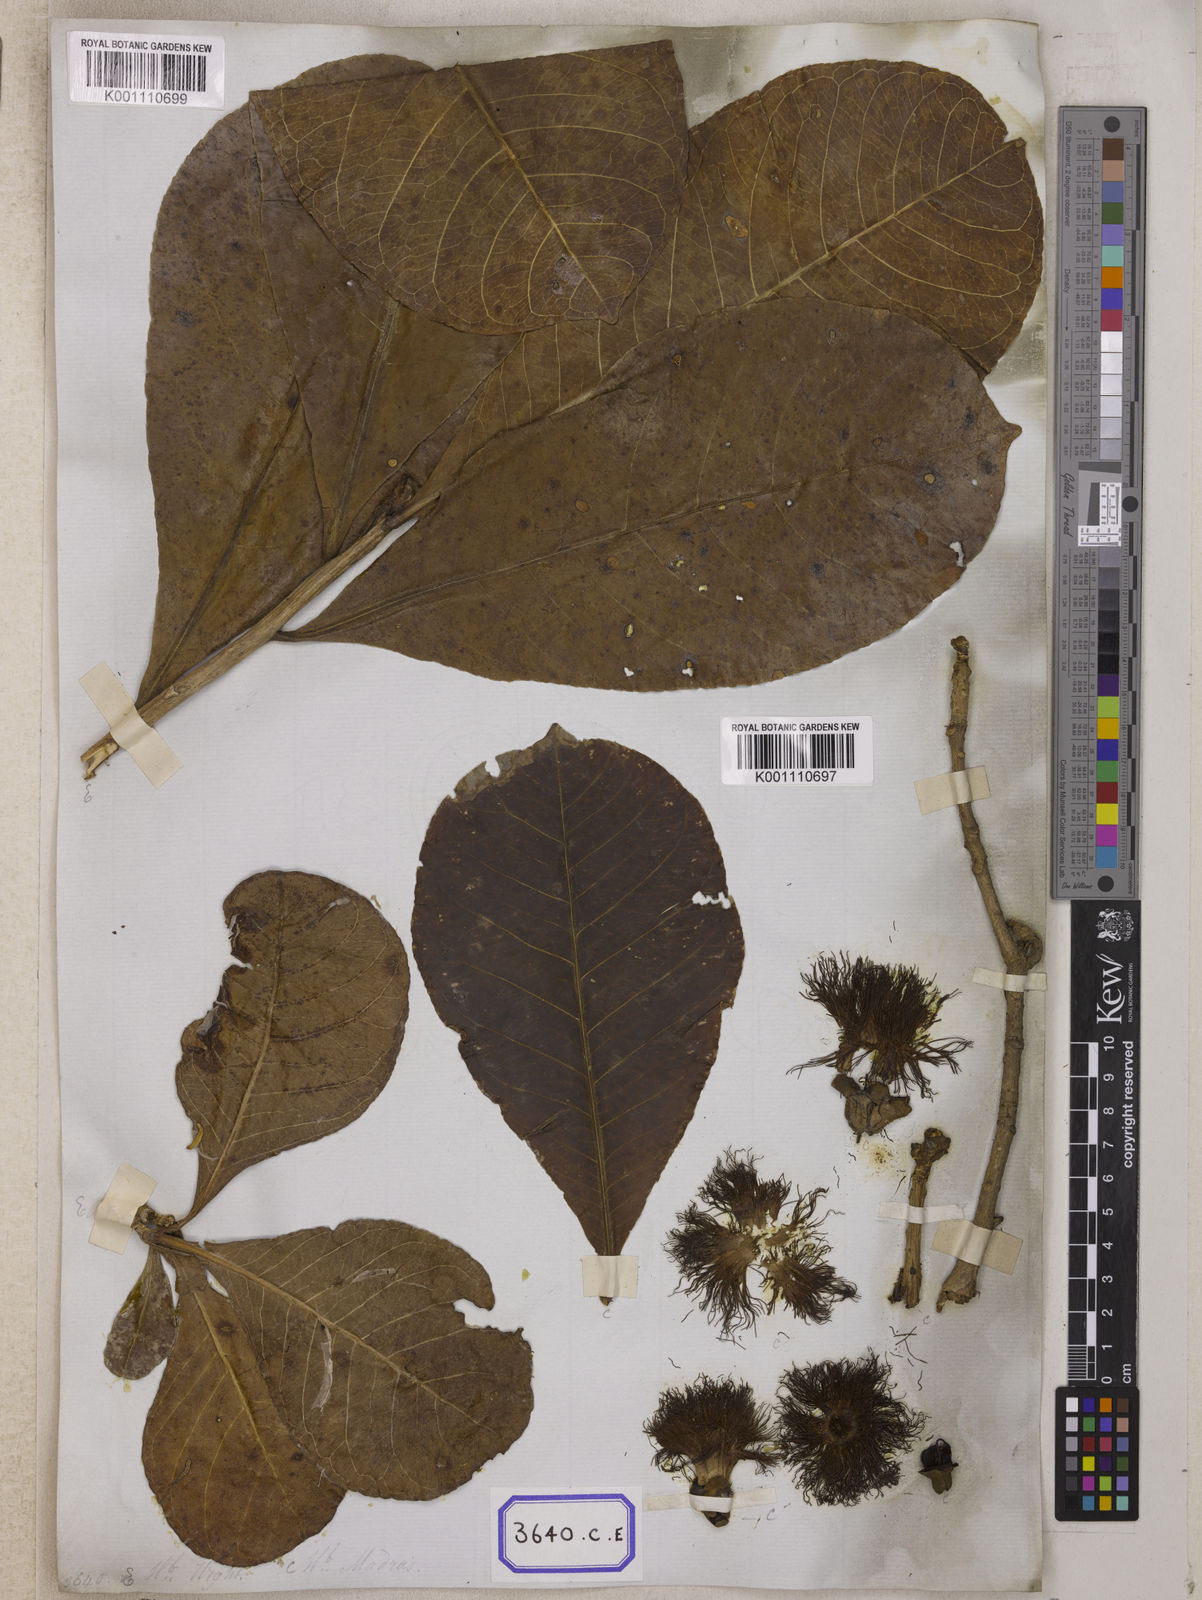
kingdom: Plantae
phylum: Tracheophyta
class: Magnoliopsida
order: Ericales
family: Lecythidaceae
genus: Careya
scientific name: Careya arborea
